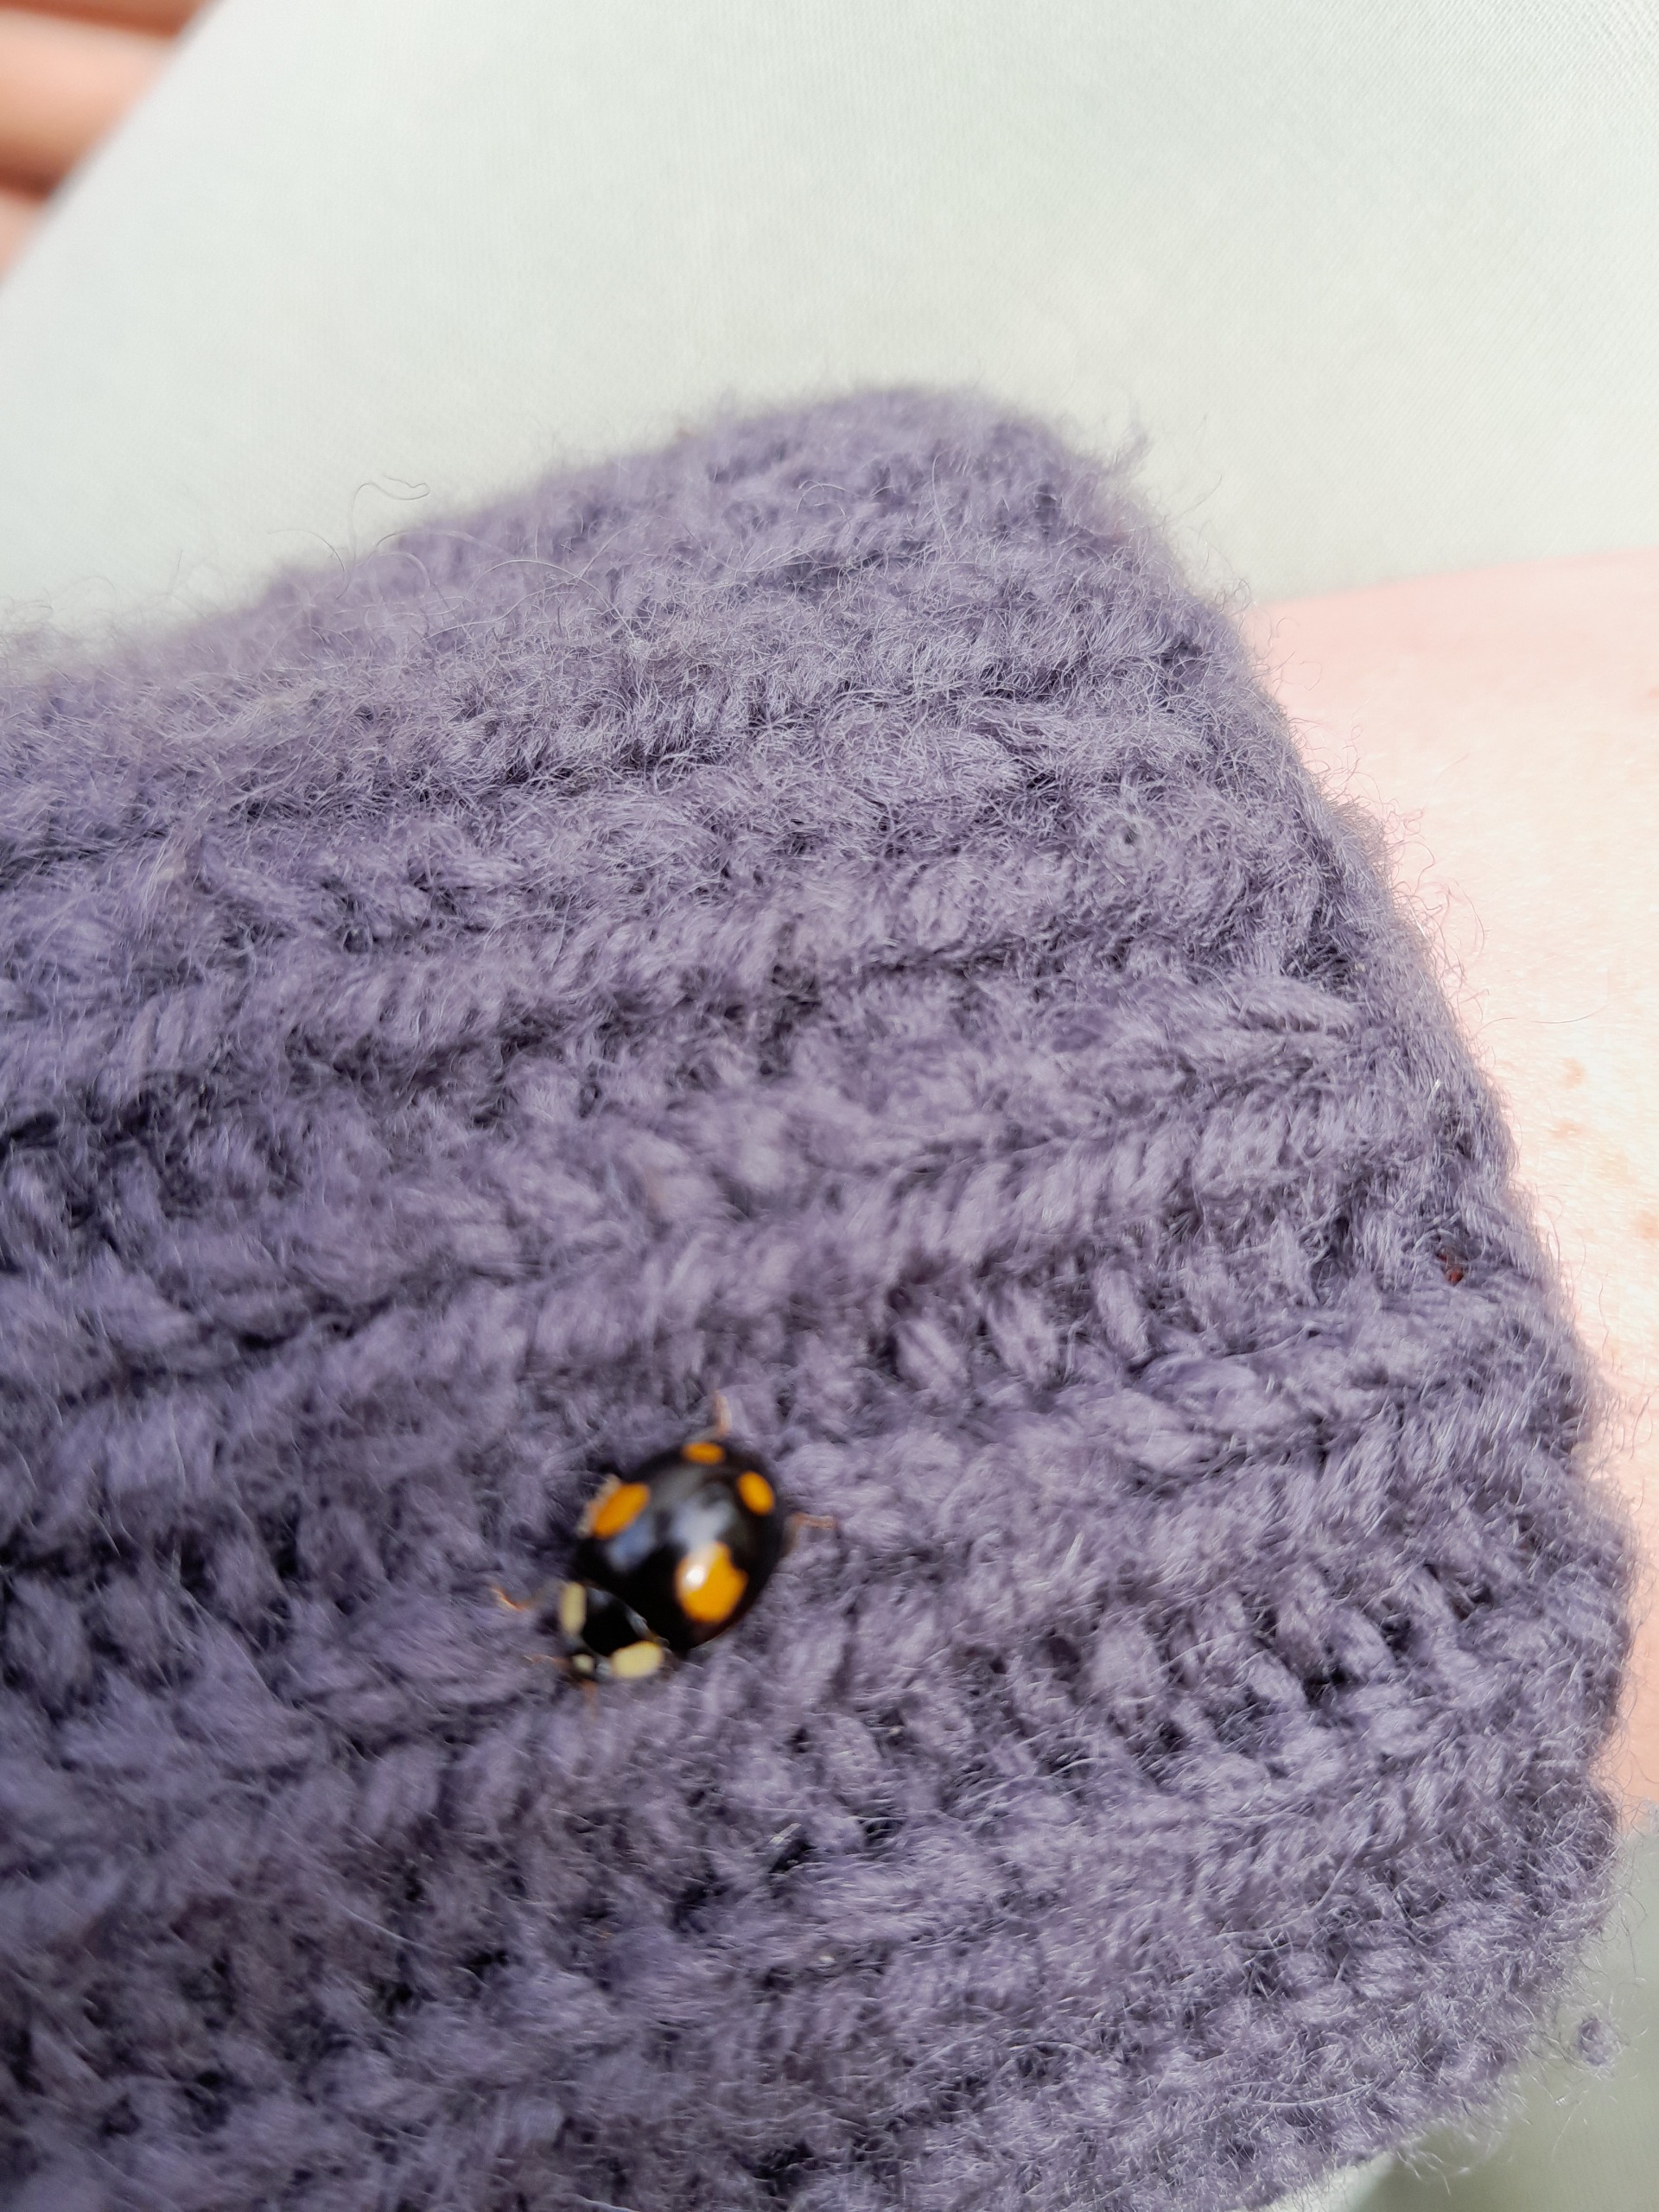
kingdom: Animalia
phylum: Arthropoda
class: Insecta
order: Coleoptera
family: Coccinellidae
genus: Harmonia
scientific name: Harmonia axyridis
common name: Harlekinmariehøne
